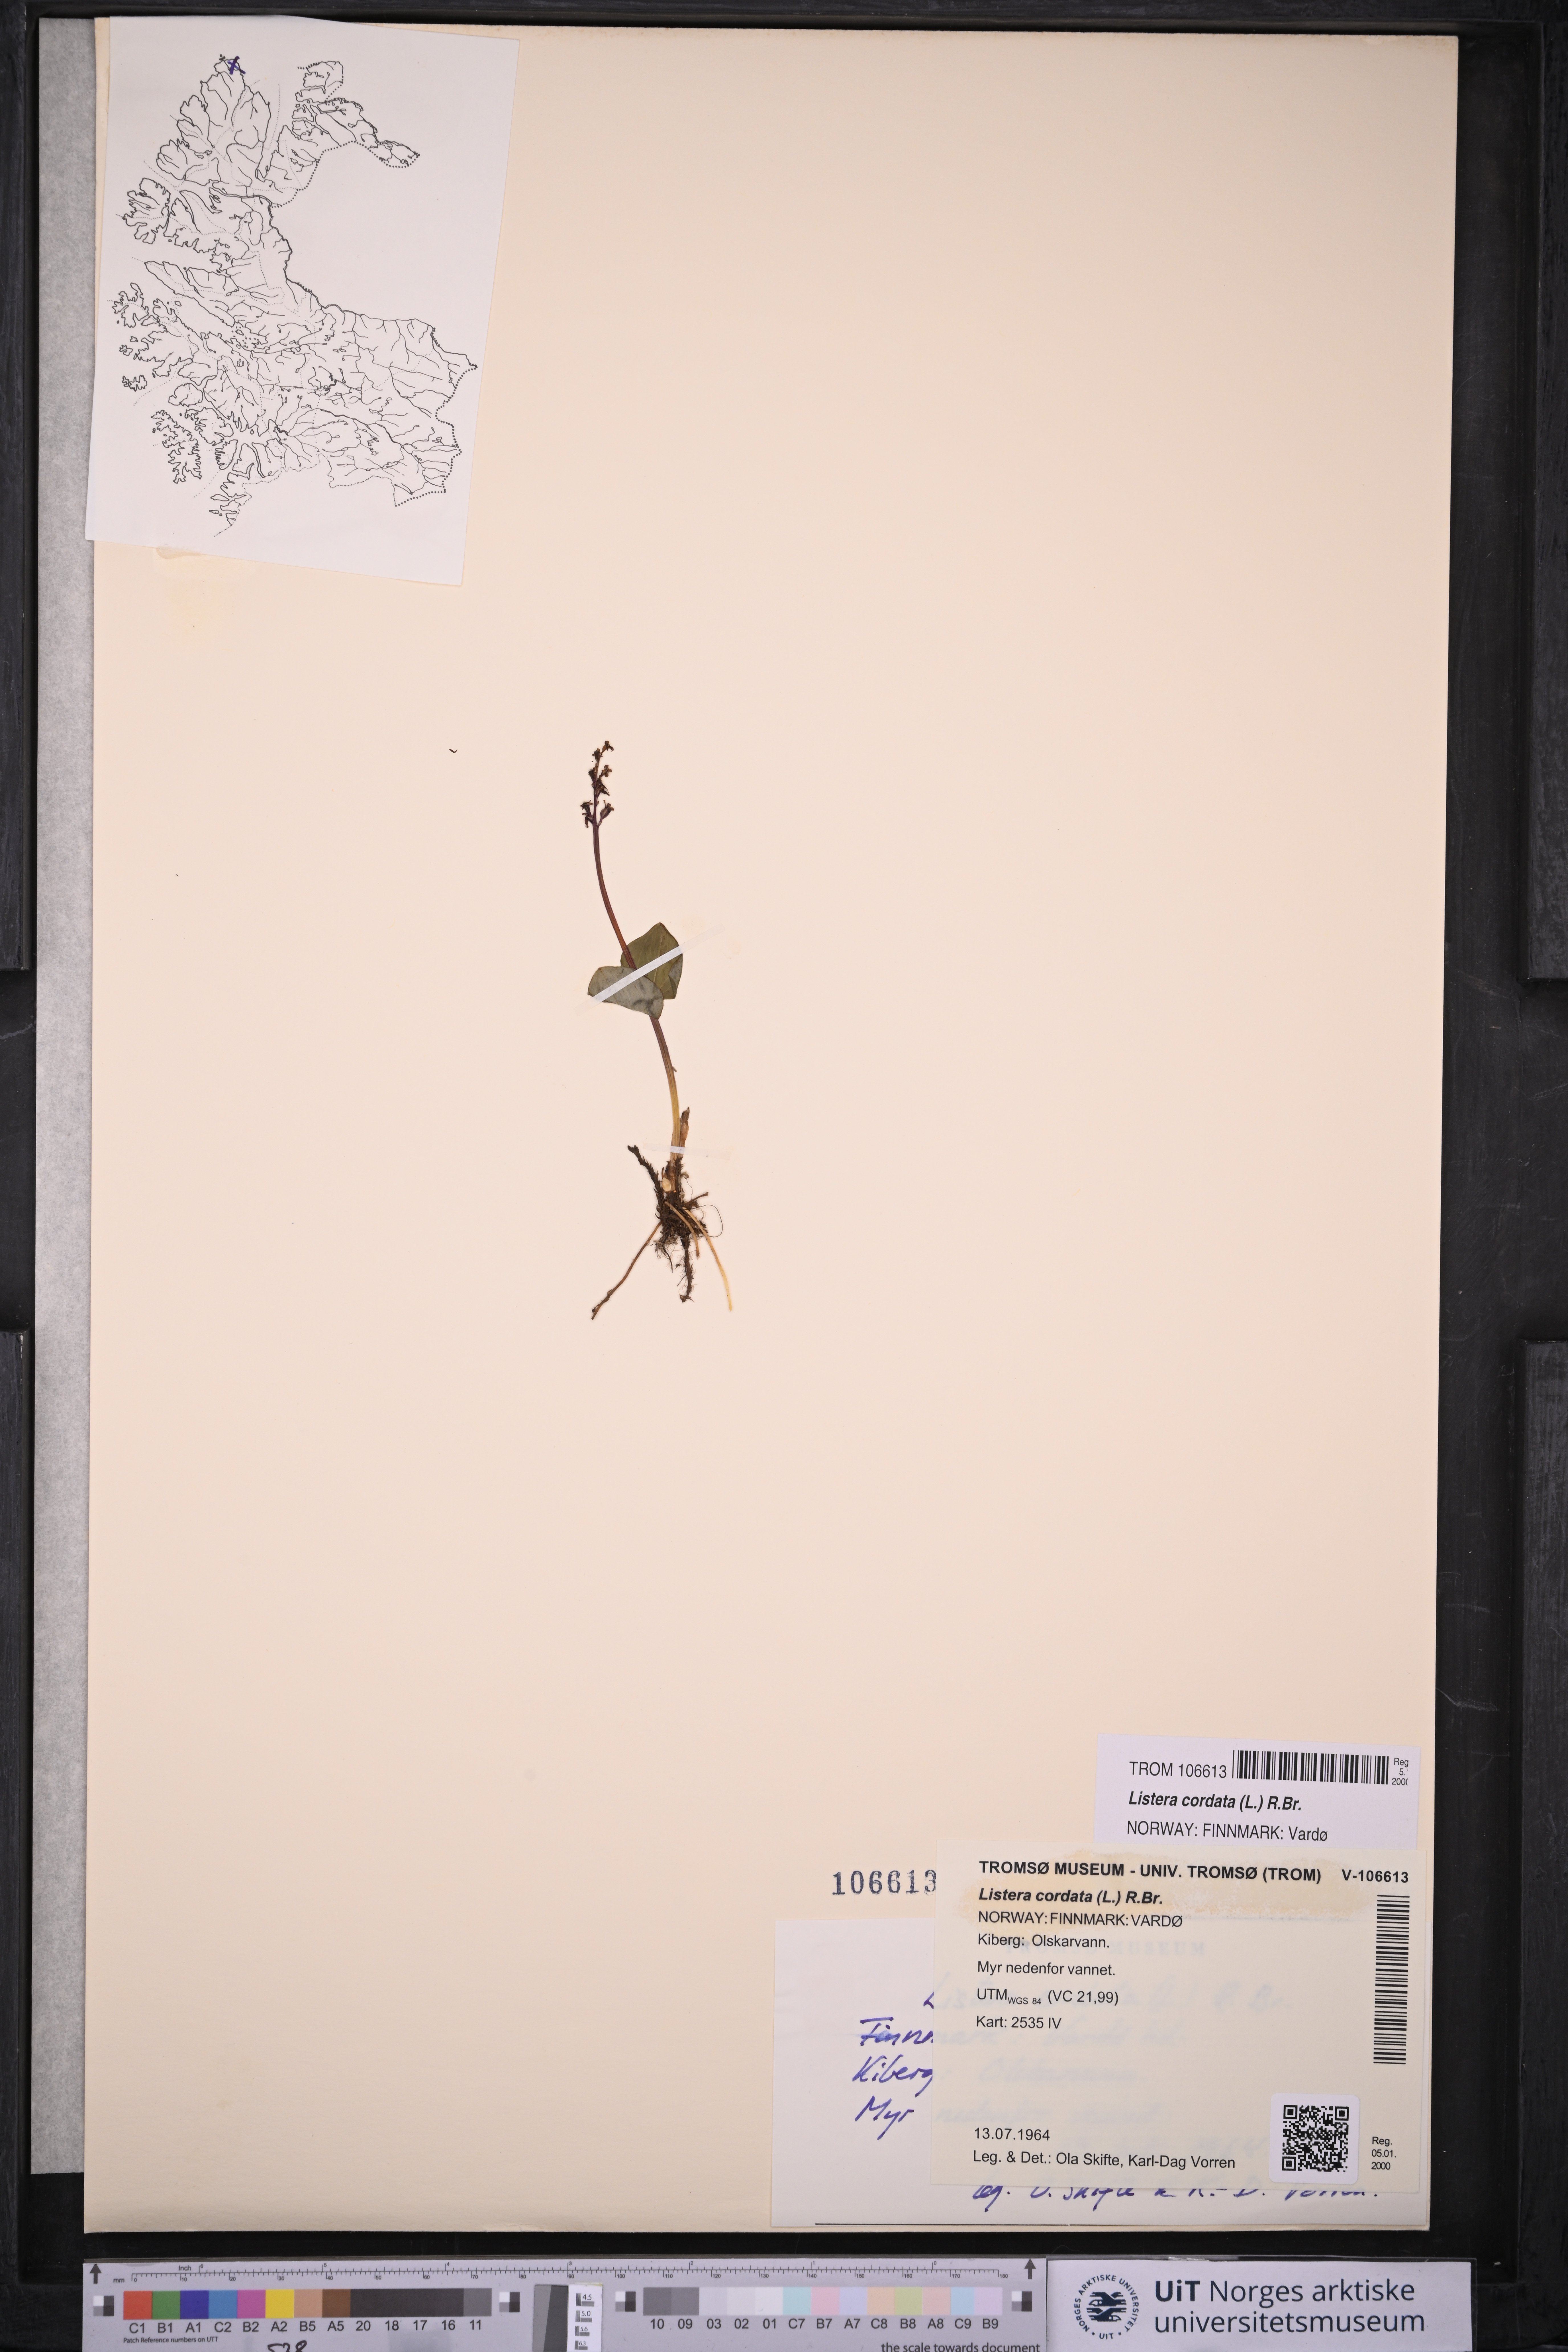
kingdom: Plantae
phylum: Tracheophyta
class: Liliopsida
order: Asparagales
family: Orchidaceae
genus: Neottia
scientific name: Neottia cordata
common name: Lesser twayblade
